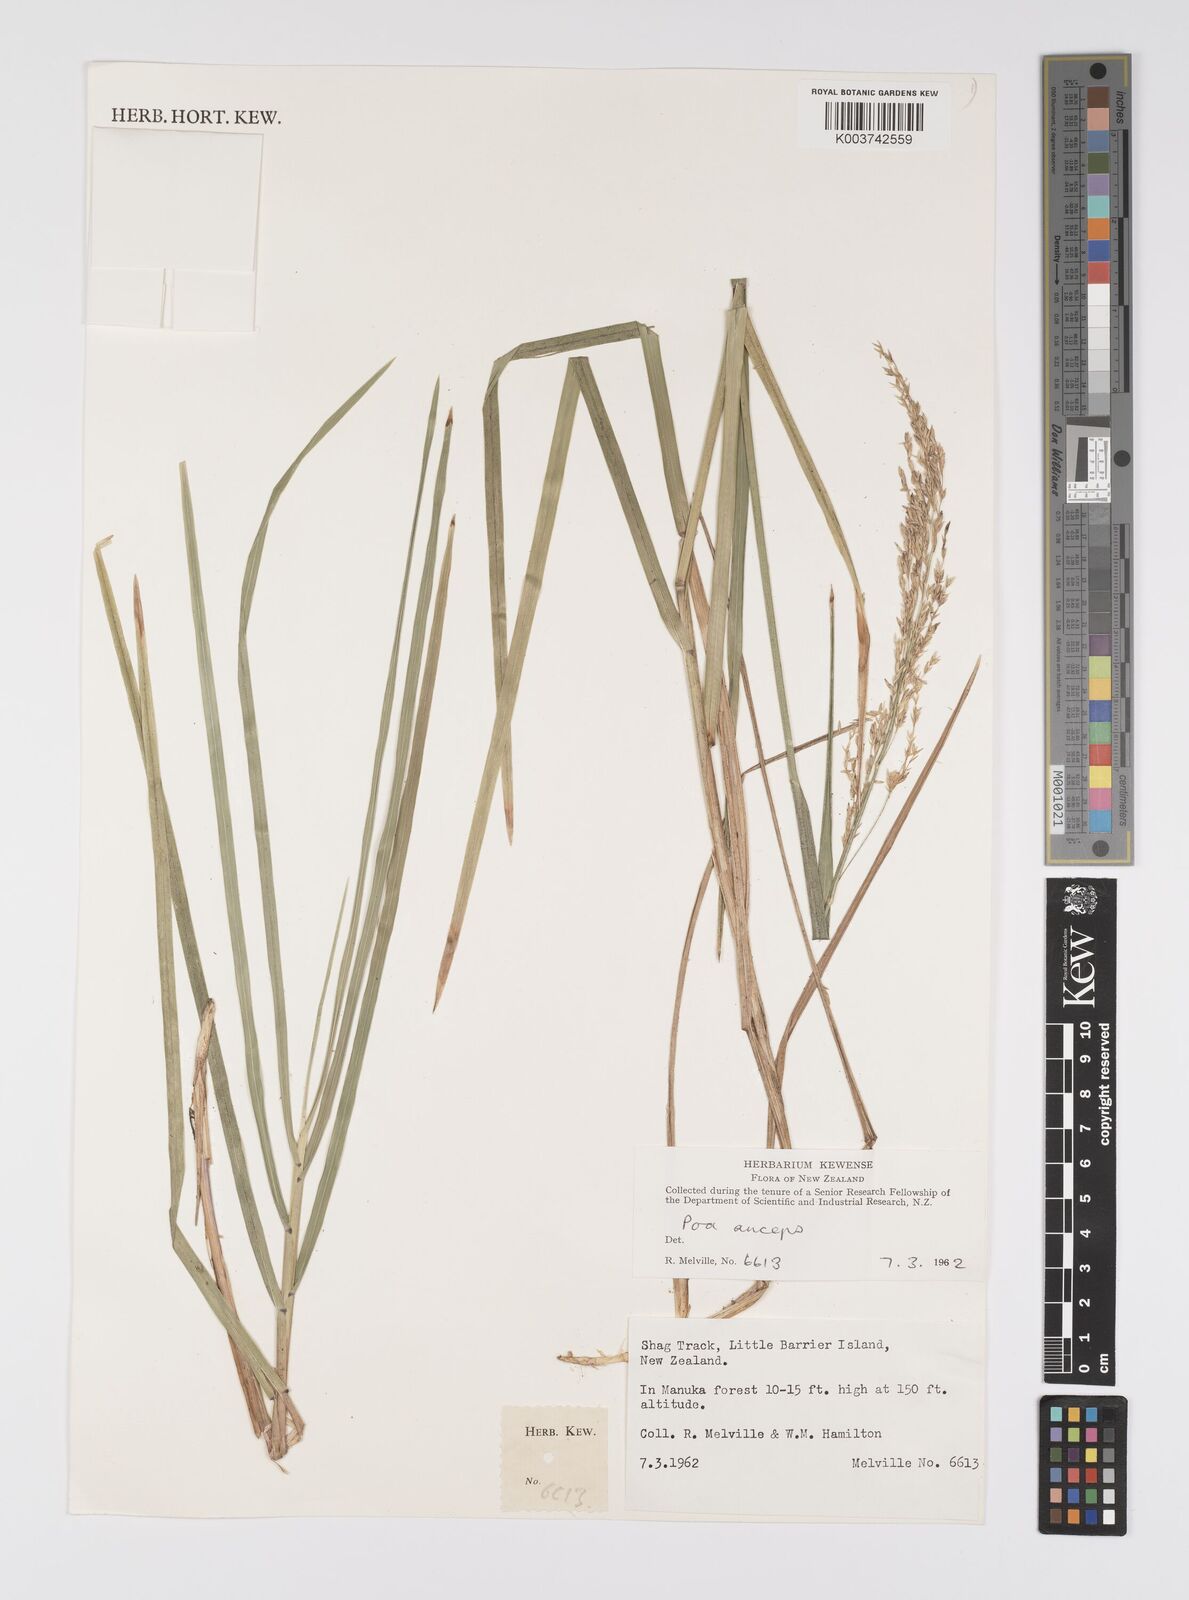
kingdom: Plantae
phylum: Tracheophyta
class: Liliopsida
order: Poales
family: Poaceae
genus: Poa
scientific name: Poa anceps
